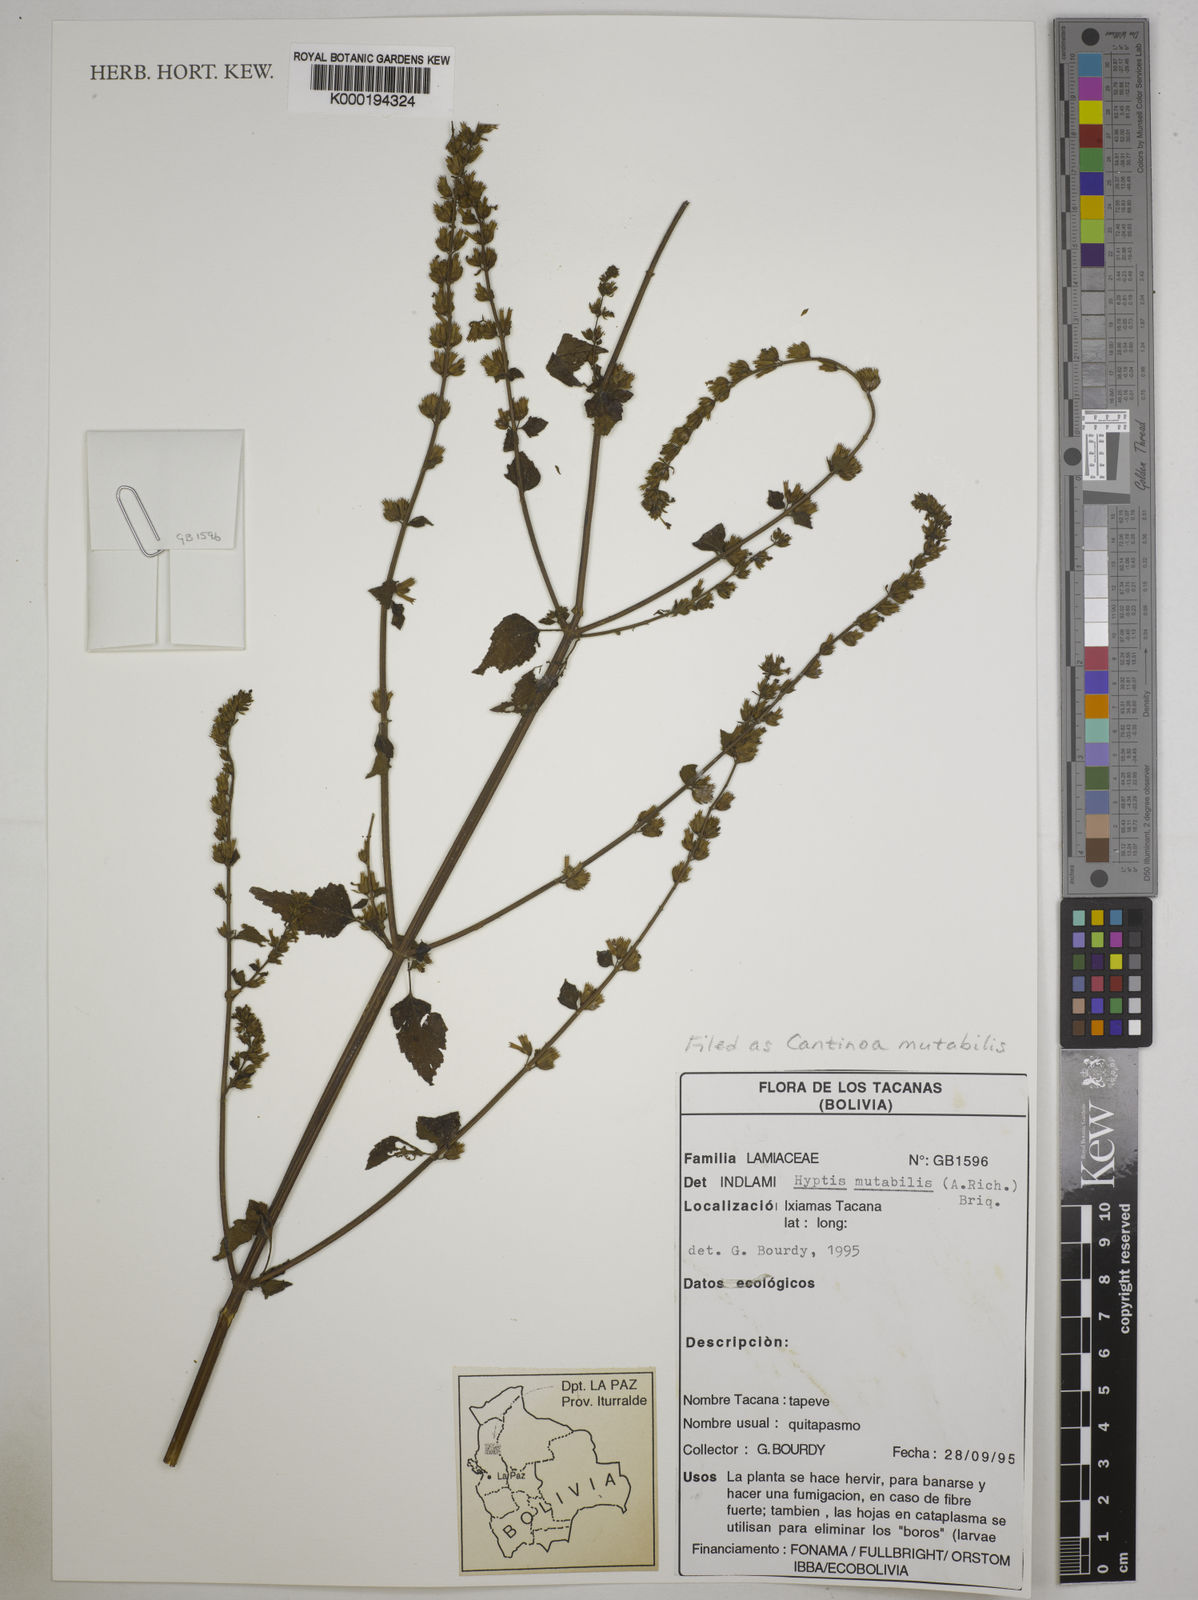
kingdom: Plantae
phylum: Tracheophyta
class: Magnoliopsida
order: Lamiales
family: Lamiaceae
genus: Cantinoa
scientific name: Cantinoa mutabilis
